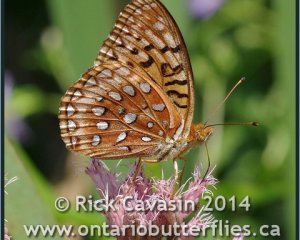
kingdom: Animalia
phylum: Arthropoda
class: Insecta
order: Lepidoptera
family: Nymphalidae
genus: Speyeria
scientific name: Speyeria aphrodite
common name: Aphrodite Fritillary
